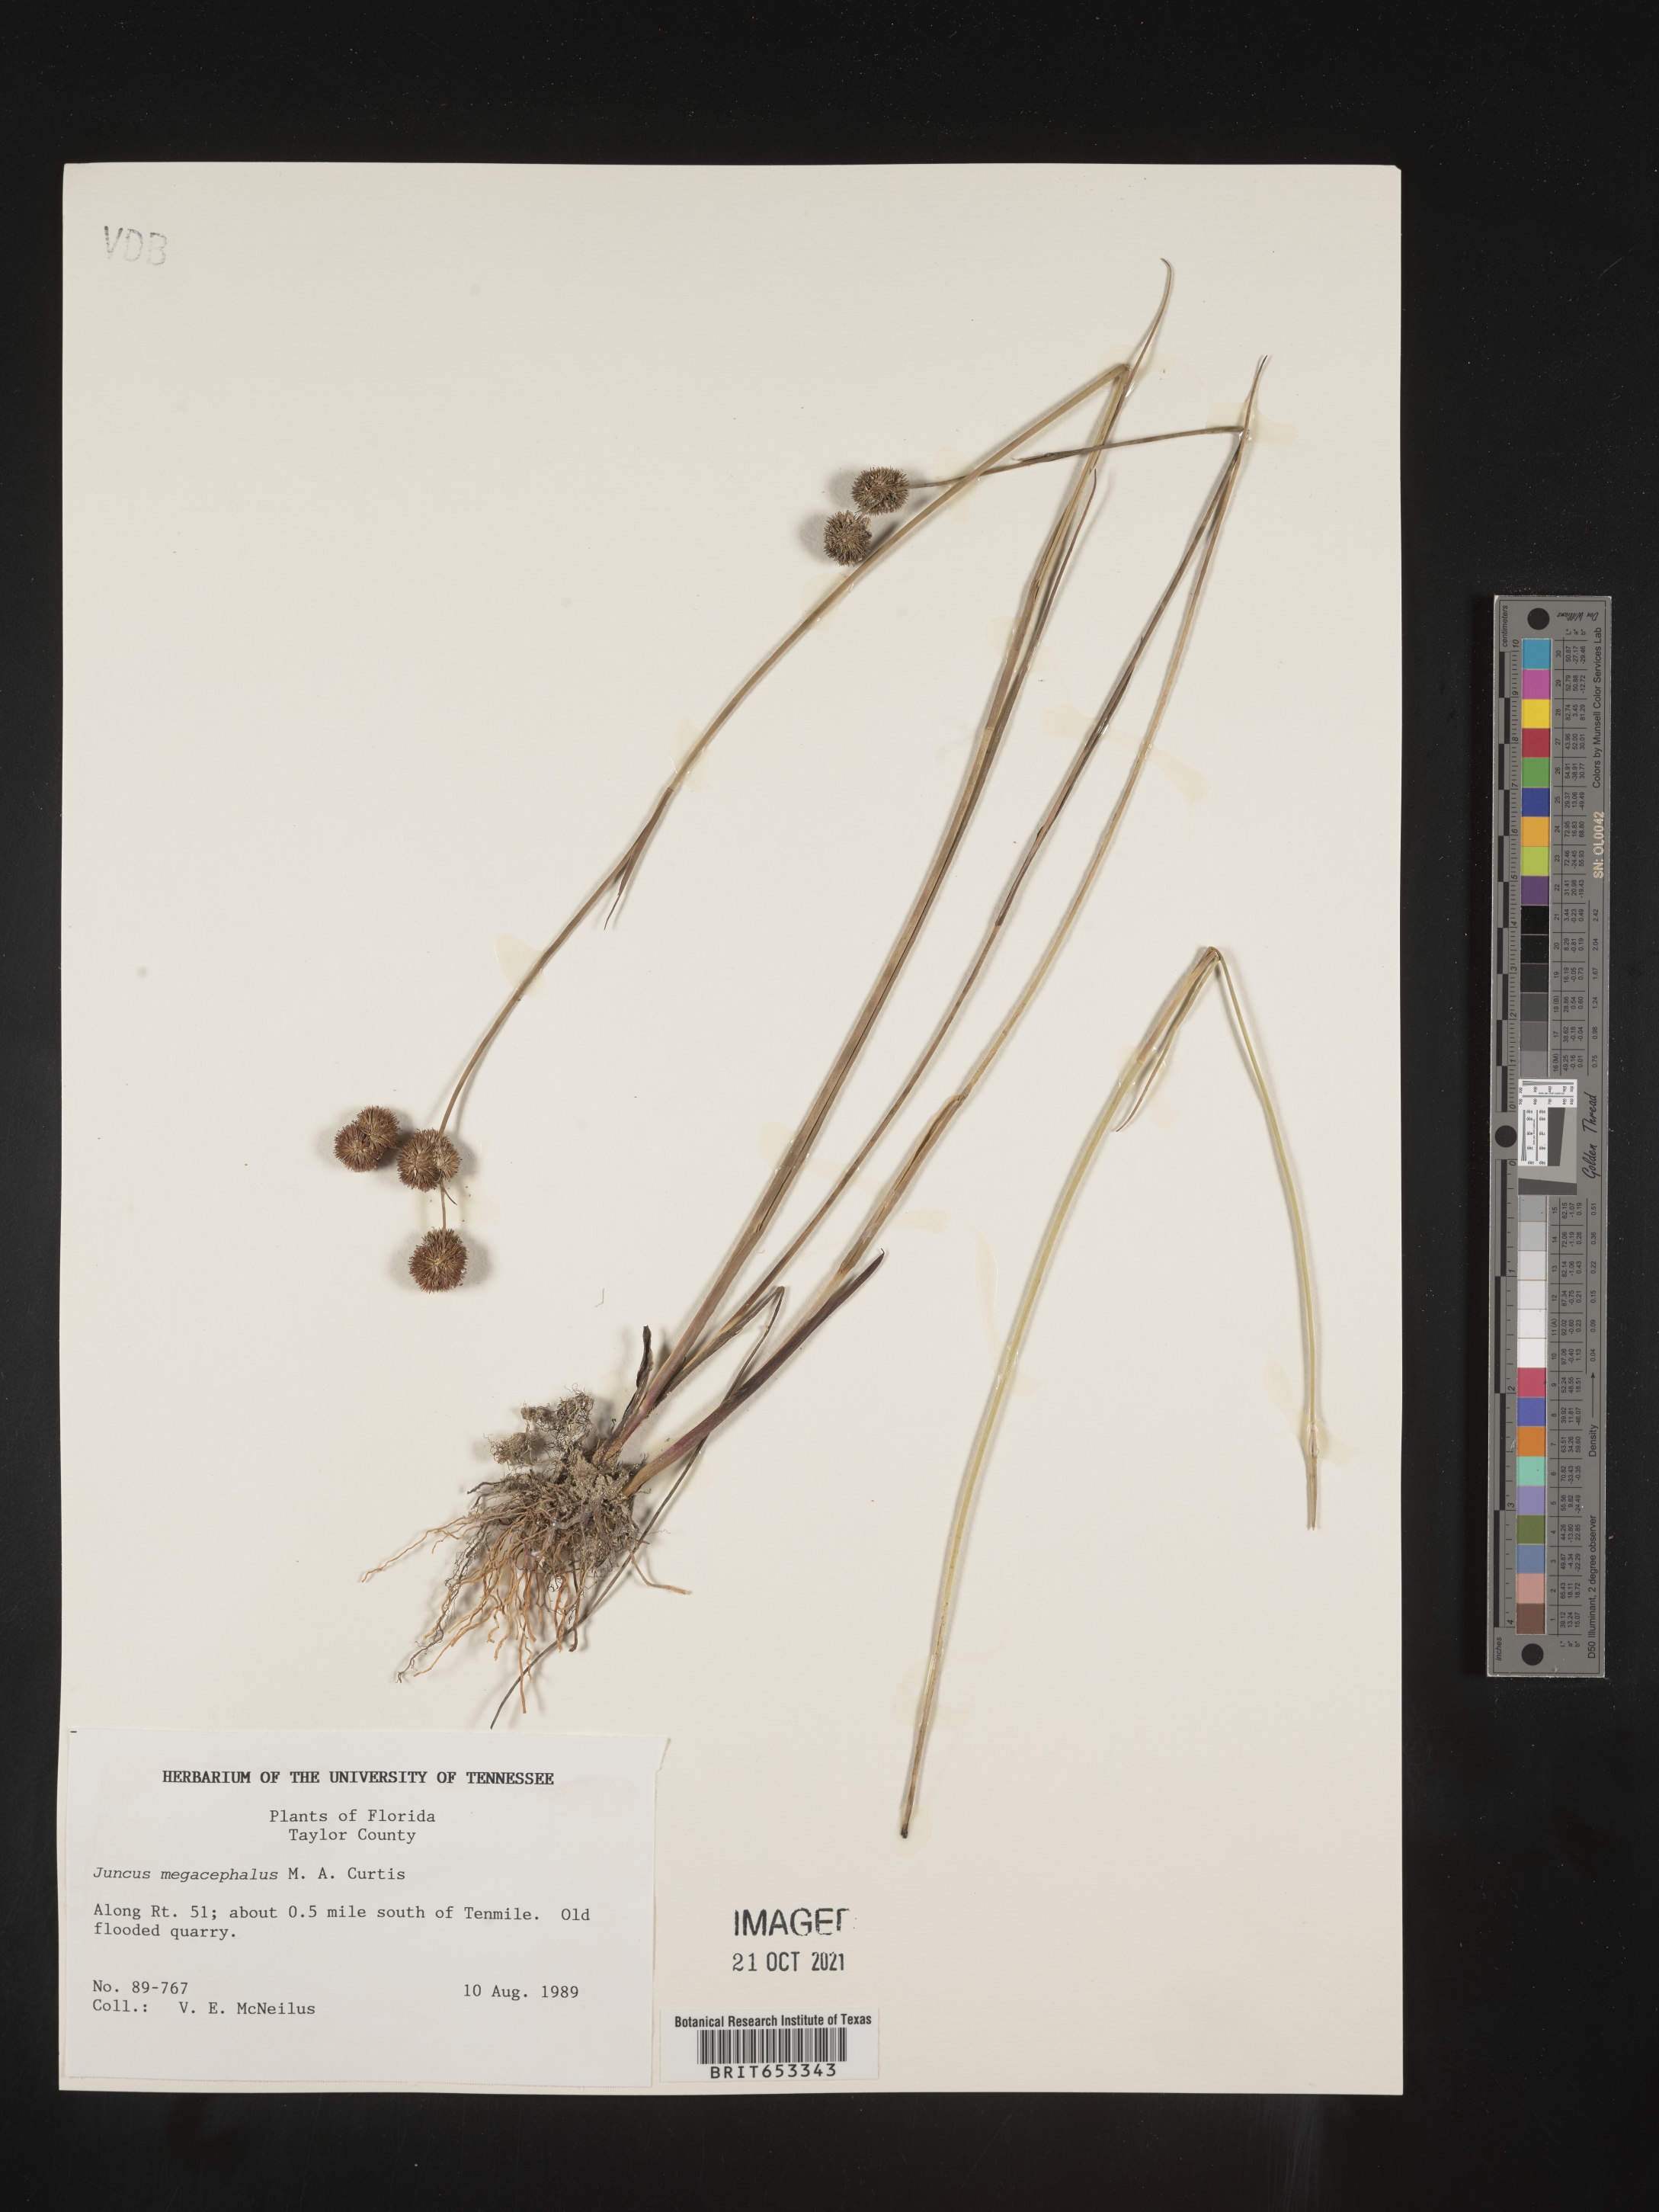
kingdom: Plantae
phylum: Tracheophyta
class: Liliopsida
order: Poales
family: Juncaceae
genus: Juncus
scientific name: Juncus megacephalus
